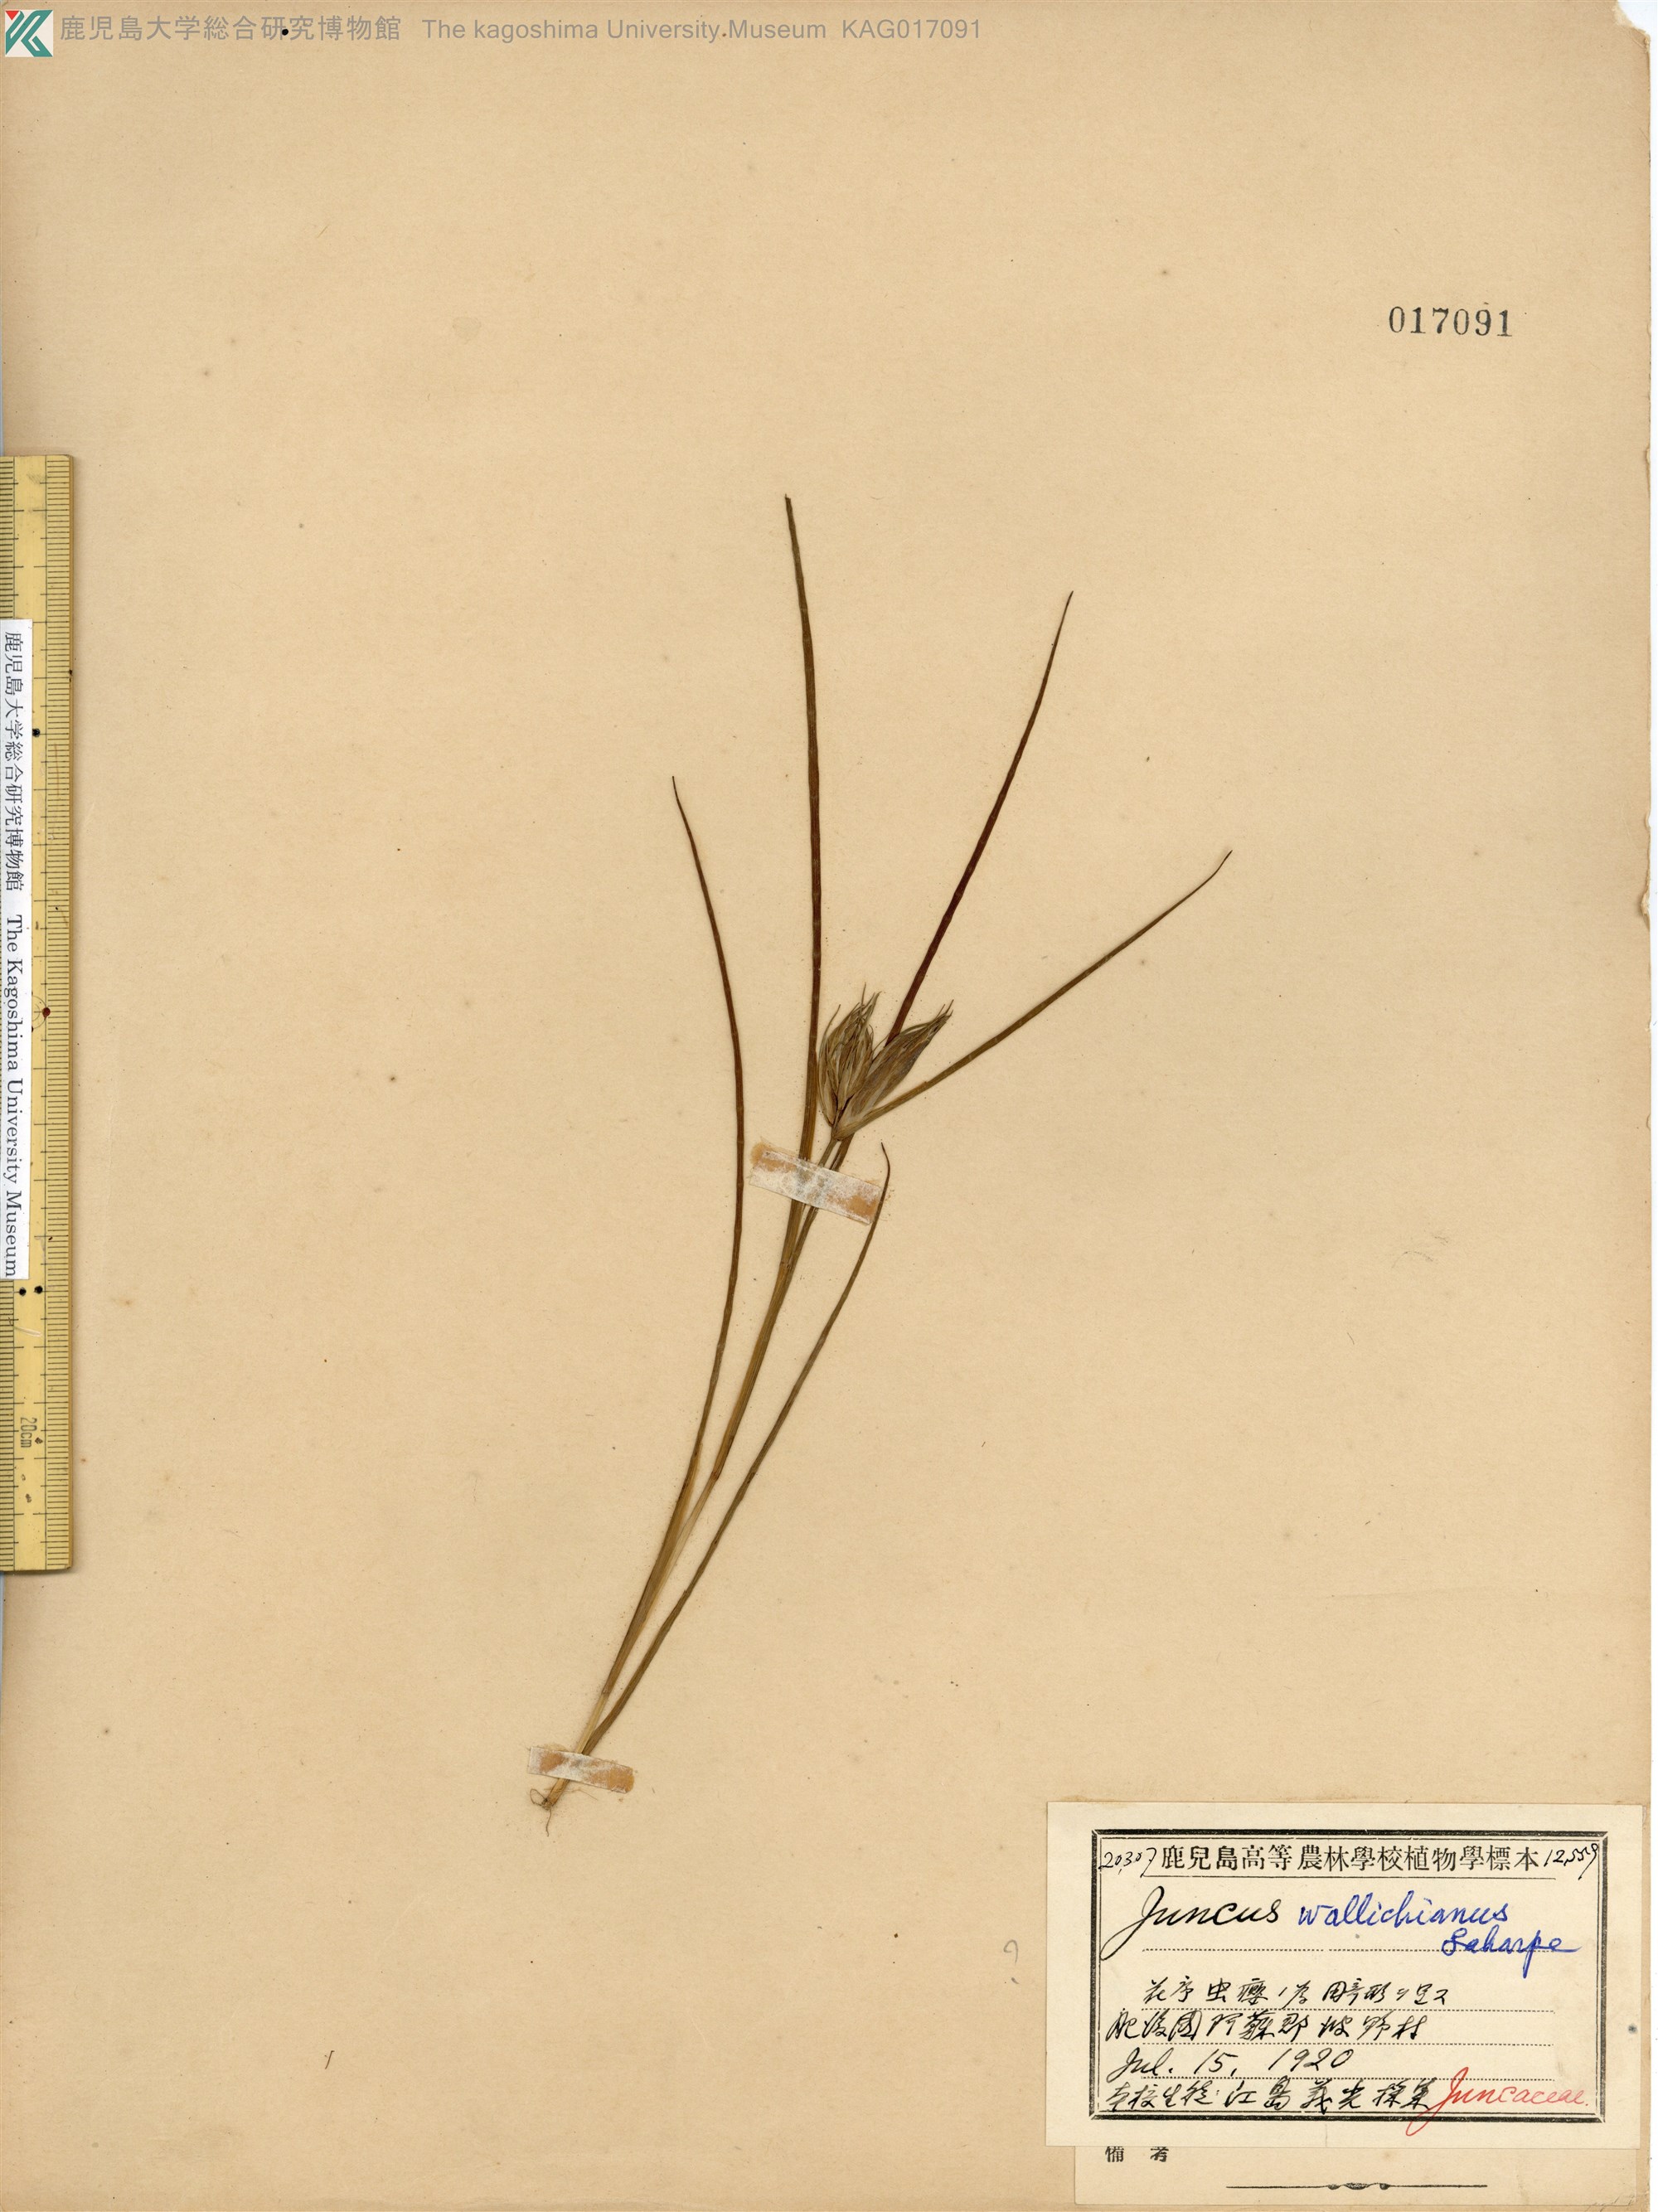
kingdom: Plantae
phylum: Tracheophyta
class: Liliopsida
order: Poales
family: Juncaceae
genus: Juncus
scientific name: Juncus prismatocarpus
